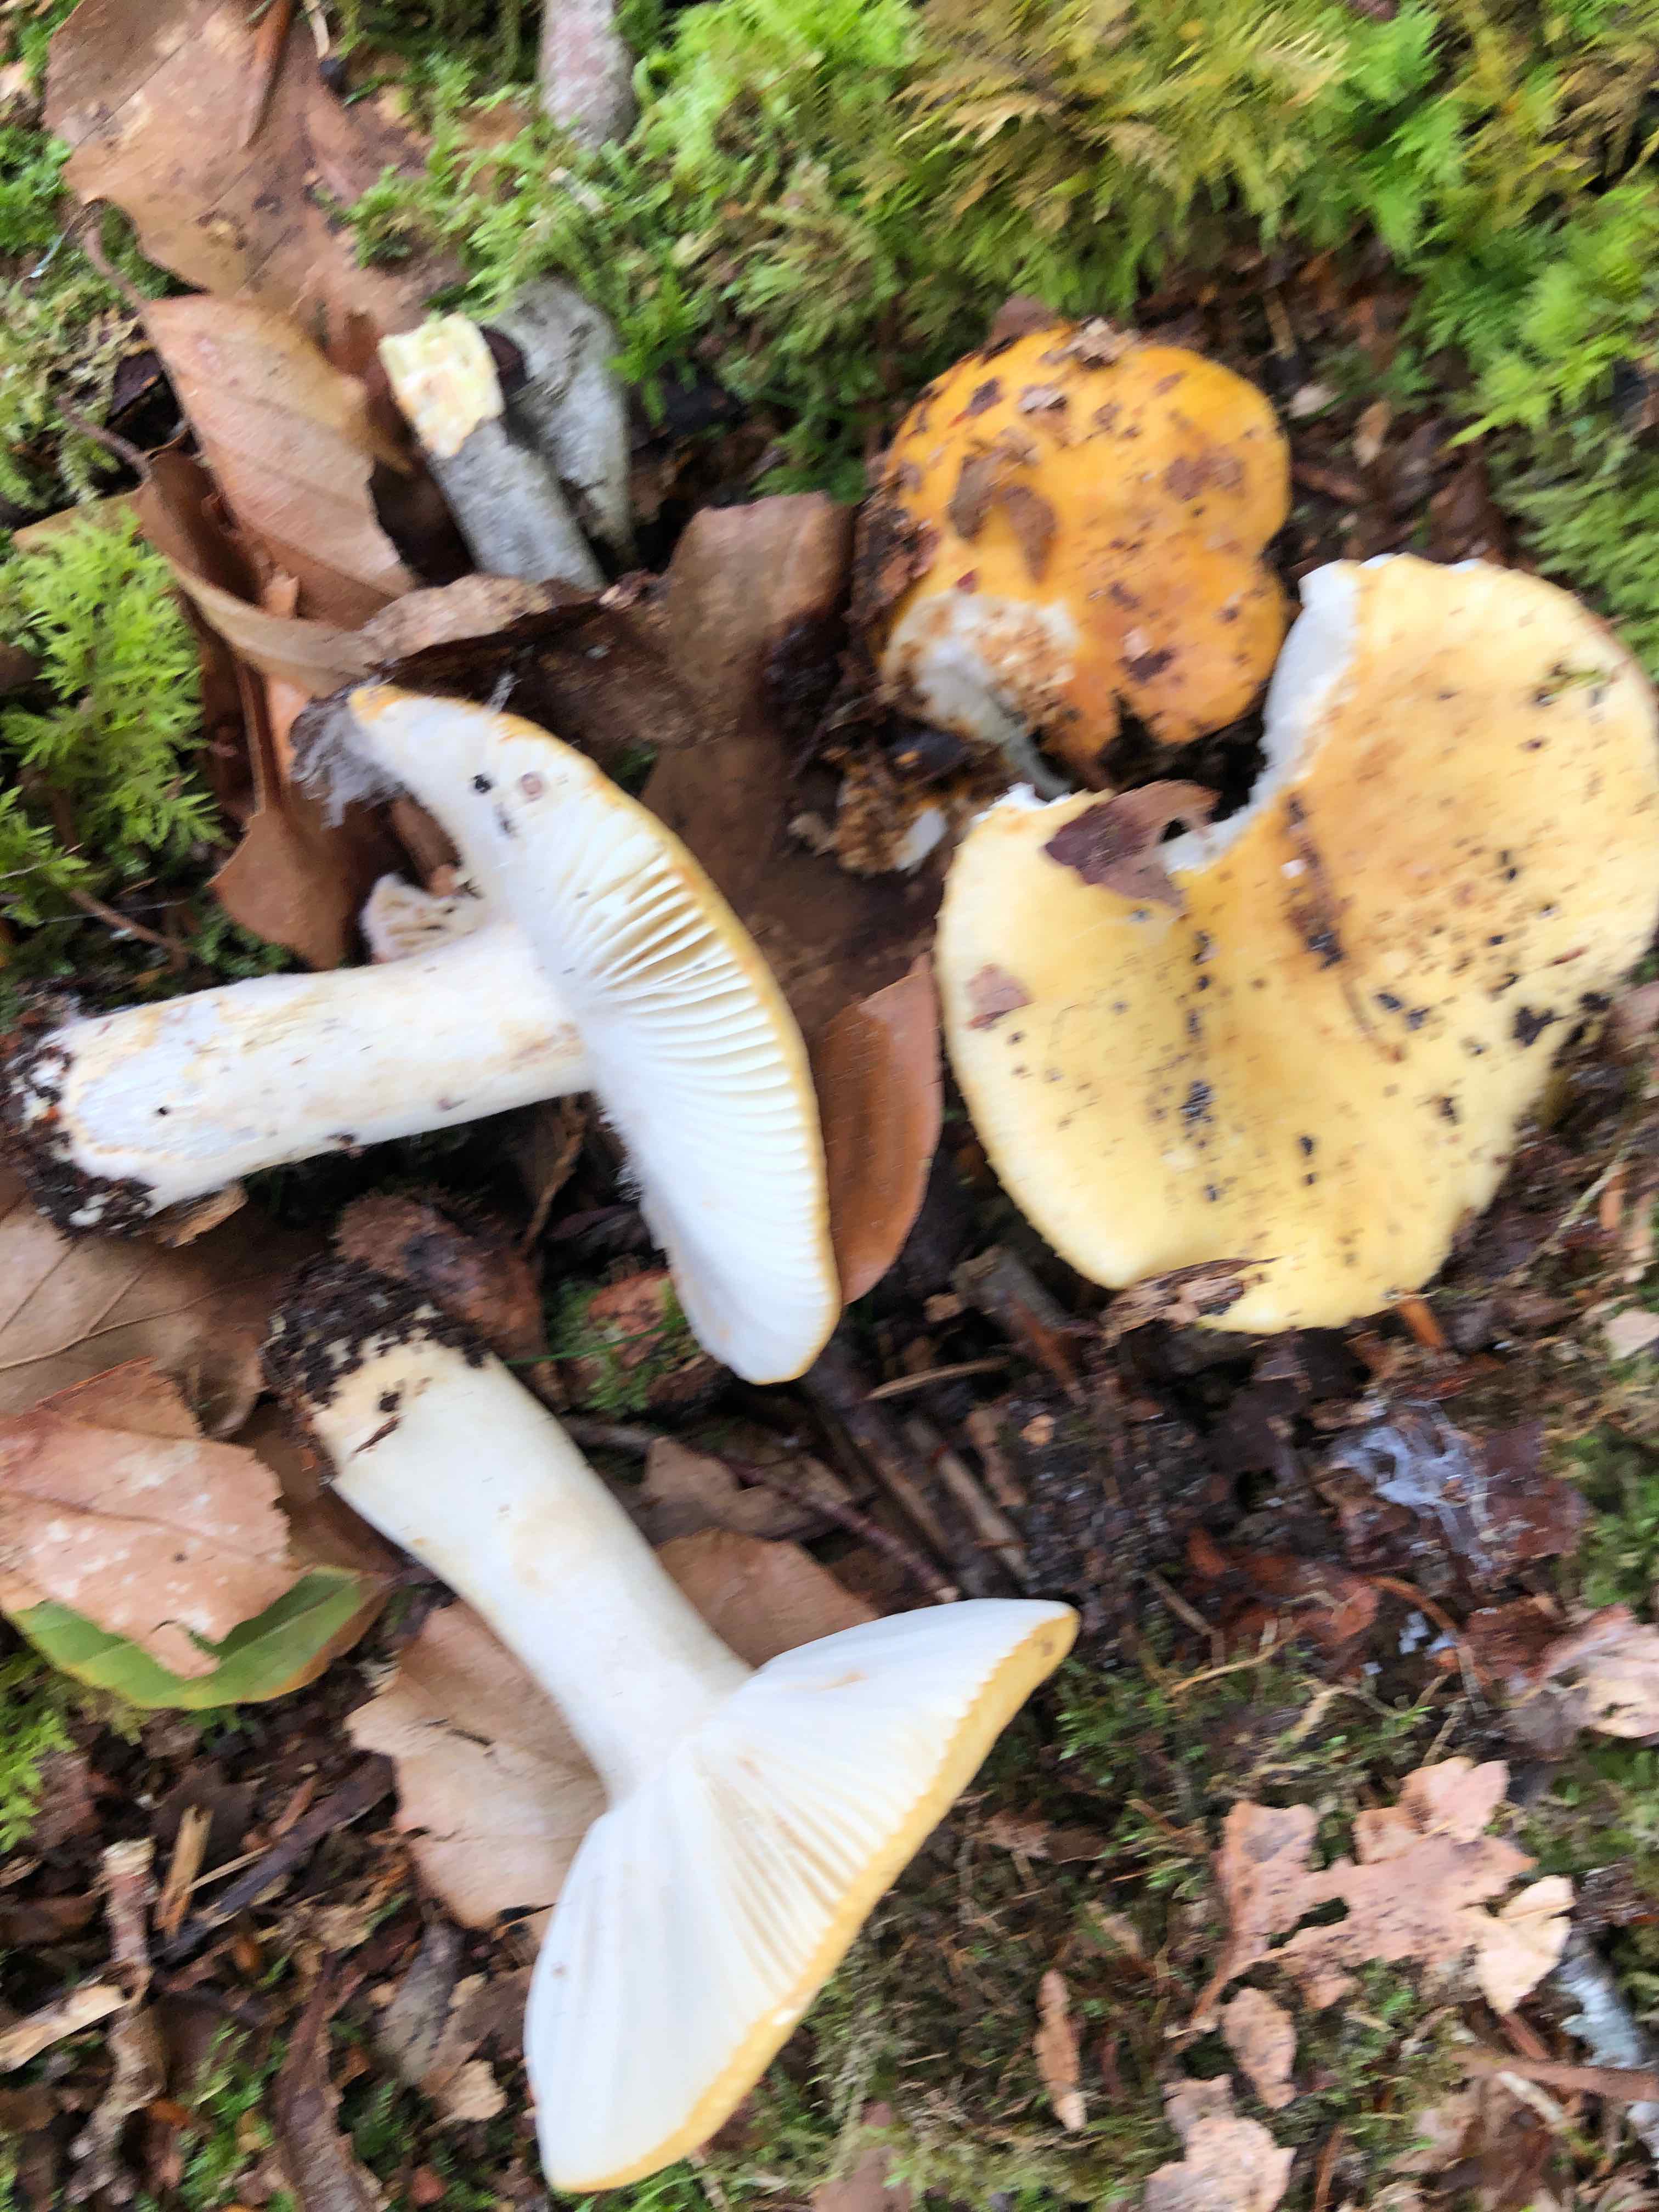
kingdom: Fungi
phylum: Basidiomycota
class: Agaricomycetes
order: Russulales
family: Russulaceae
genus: Russula
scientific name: Russula ochroleuca
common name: okkergul skørhat
